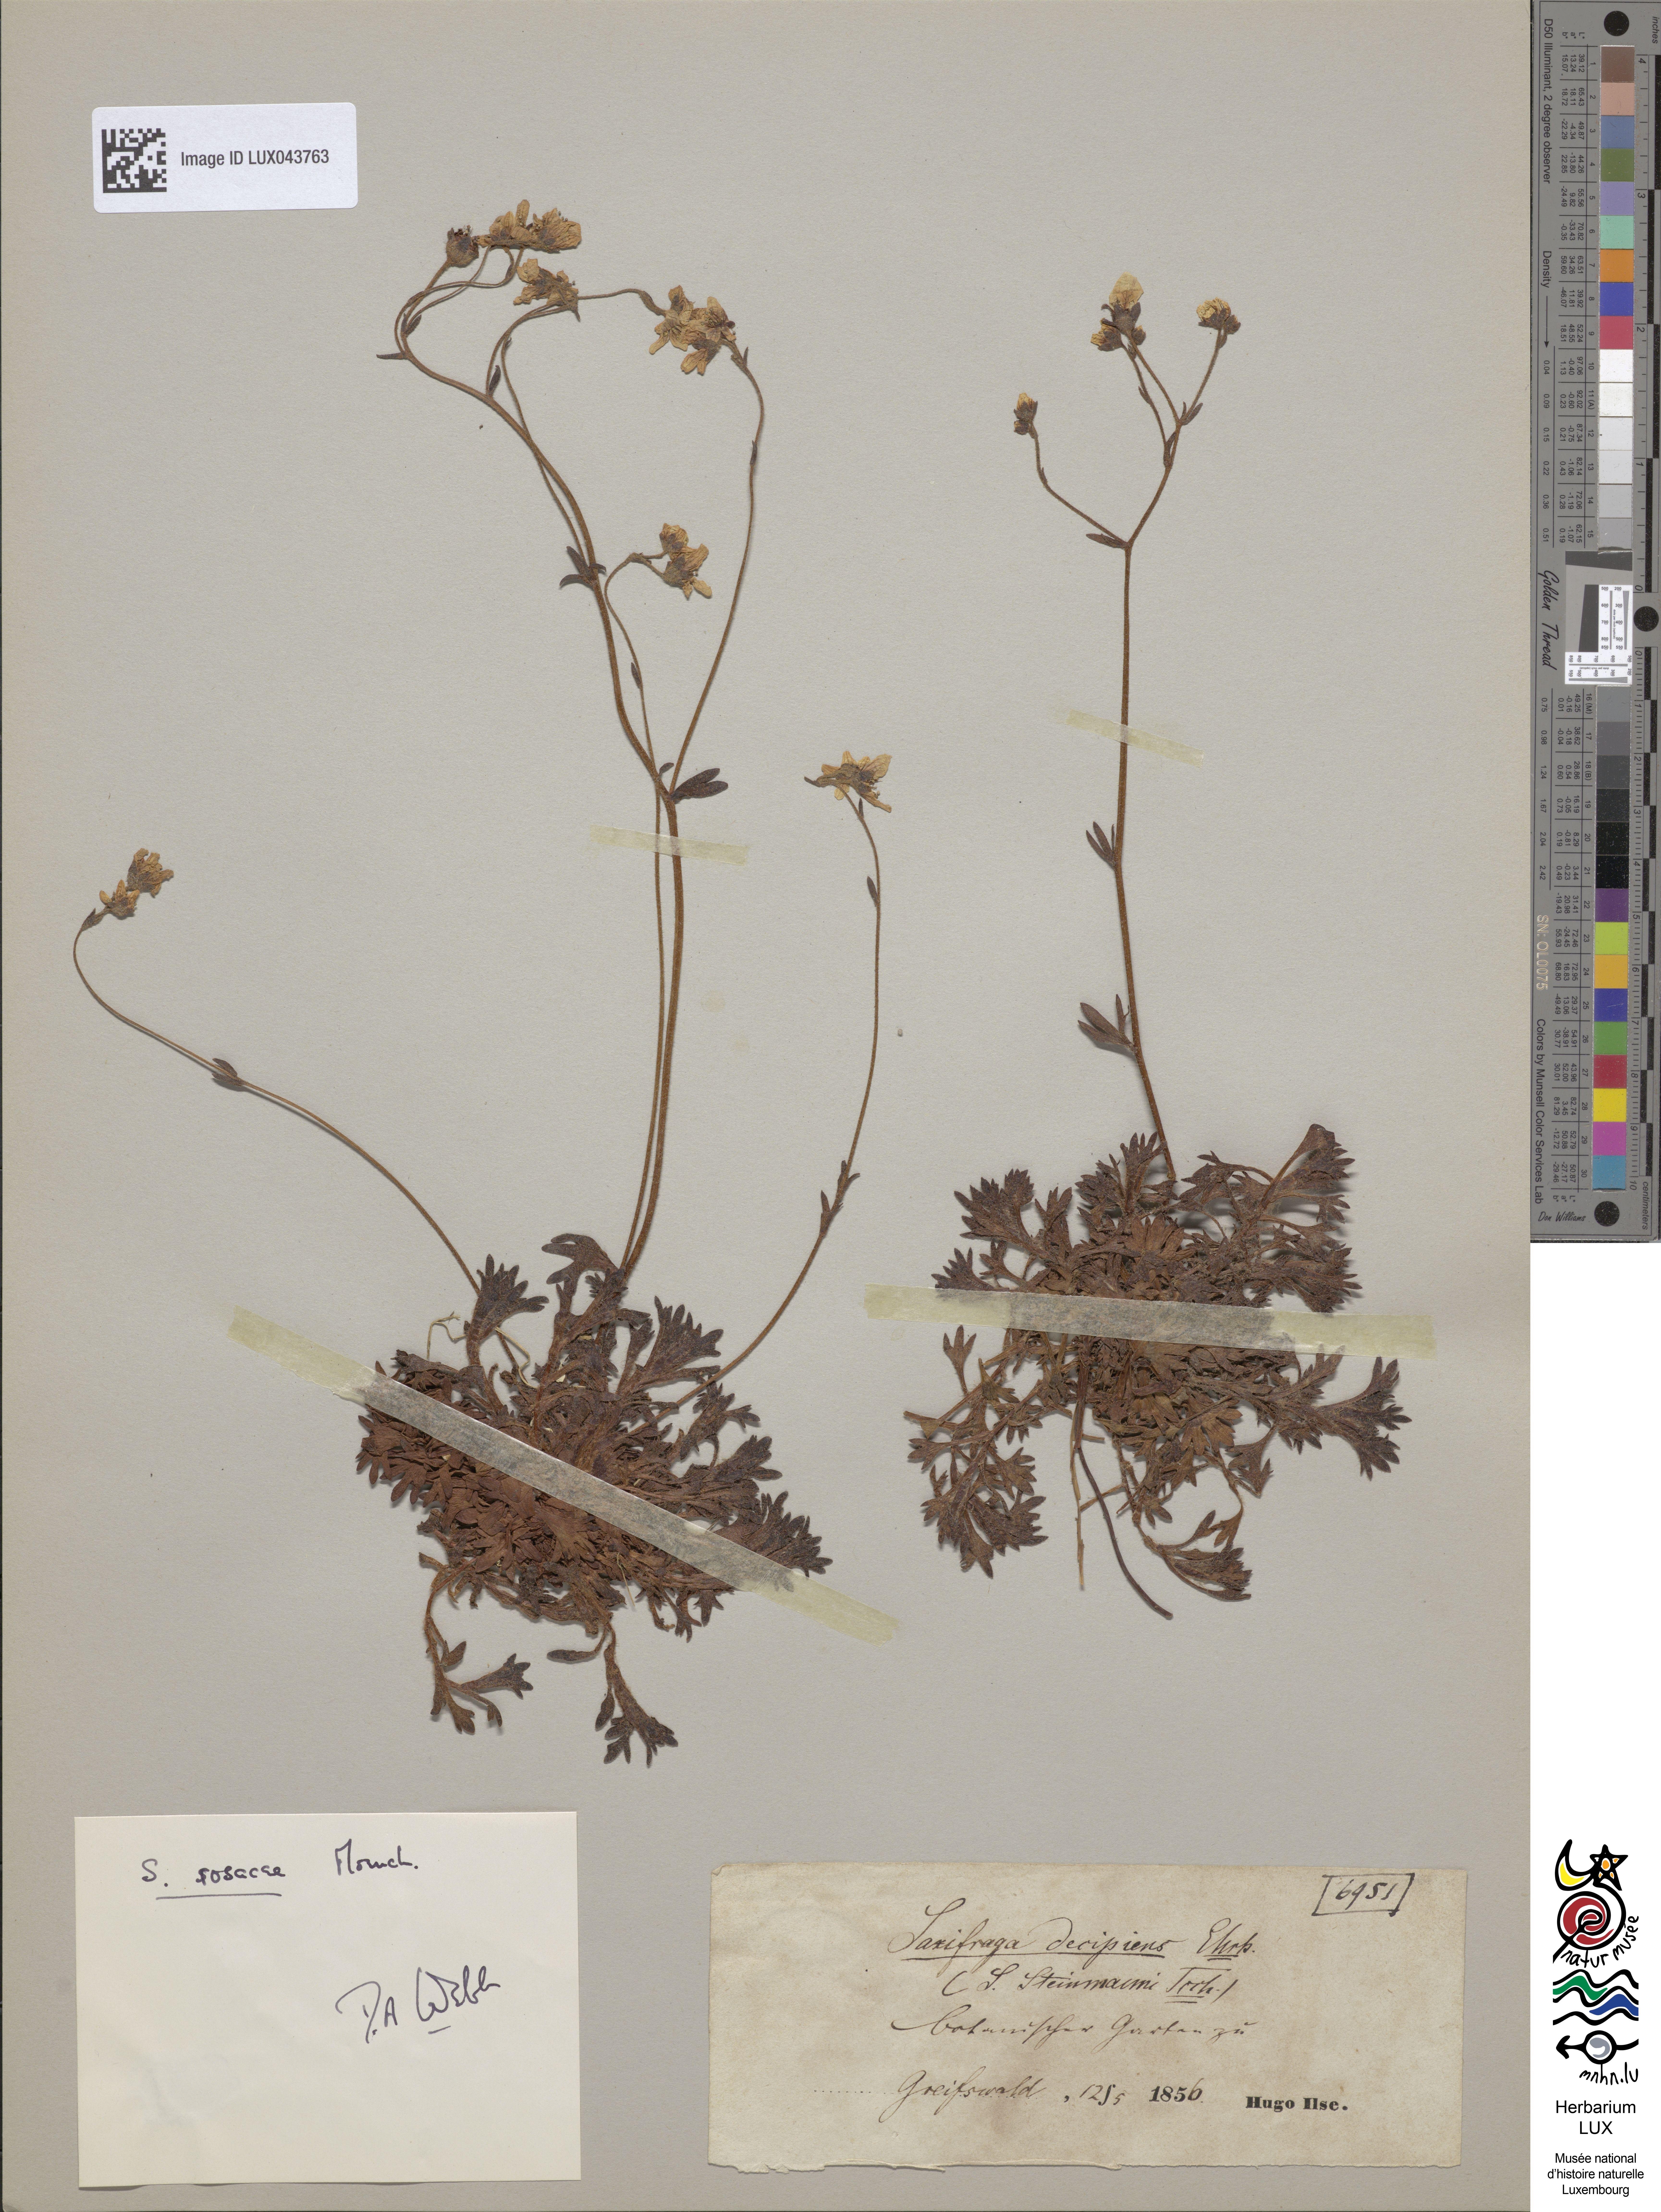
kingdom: Plantae
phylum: Tracheophyta
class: Magnoliopsida
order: Saxifragales
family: Saxifragaceae
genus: Saxifraga
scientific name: Saxifraga rosacea
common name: Irish saxifrage
